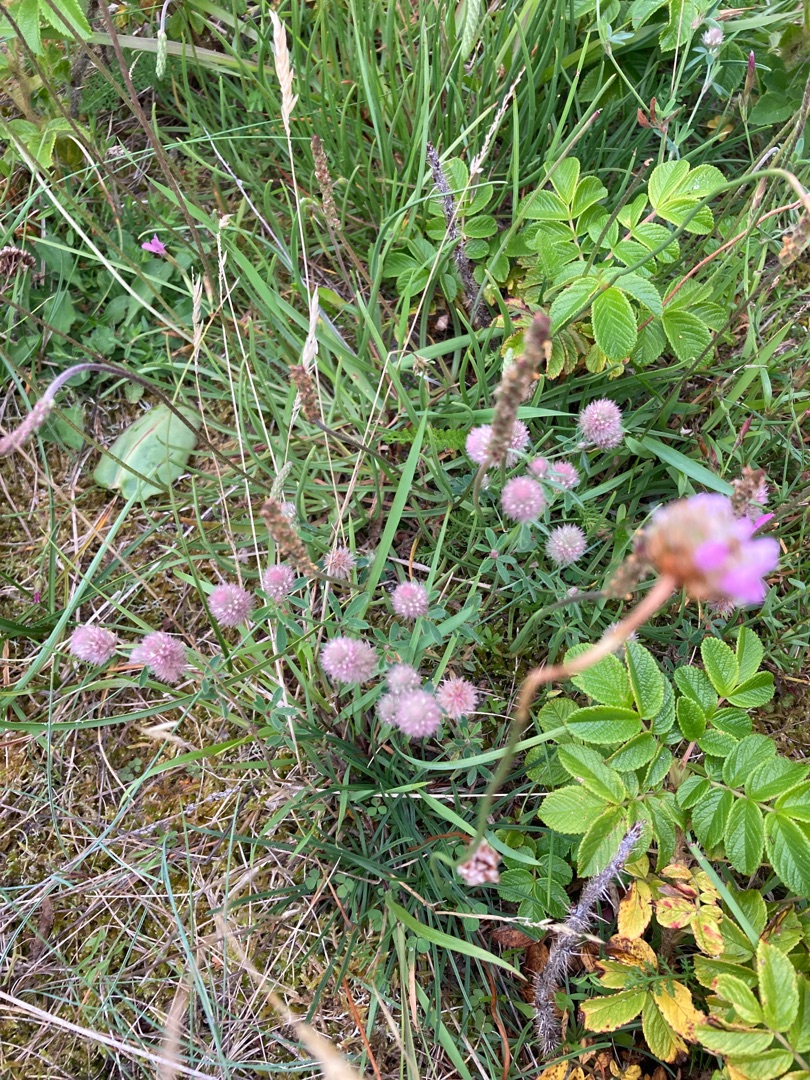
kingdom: Plantae
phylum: Tracheophyta
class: Magnoliopsida
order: Fabales
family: Fabaceae
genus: Trifolium
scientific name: Trifolium arvense
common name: Hare-kløver
